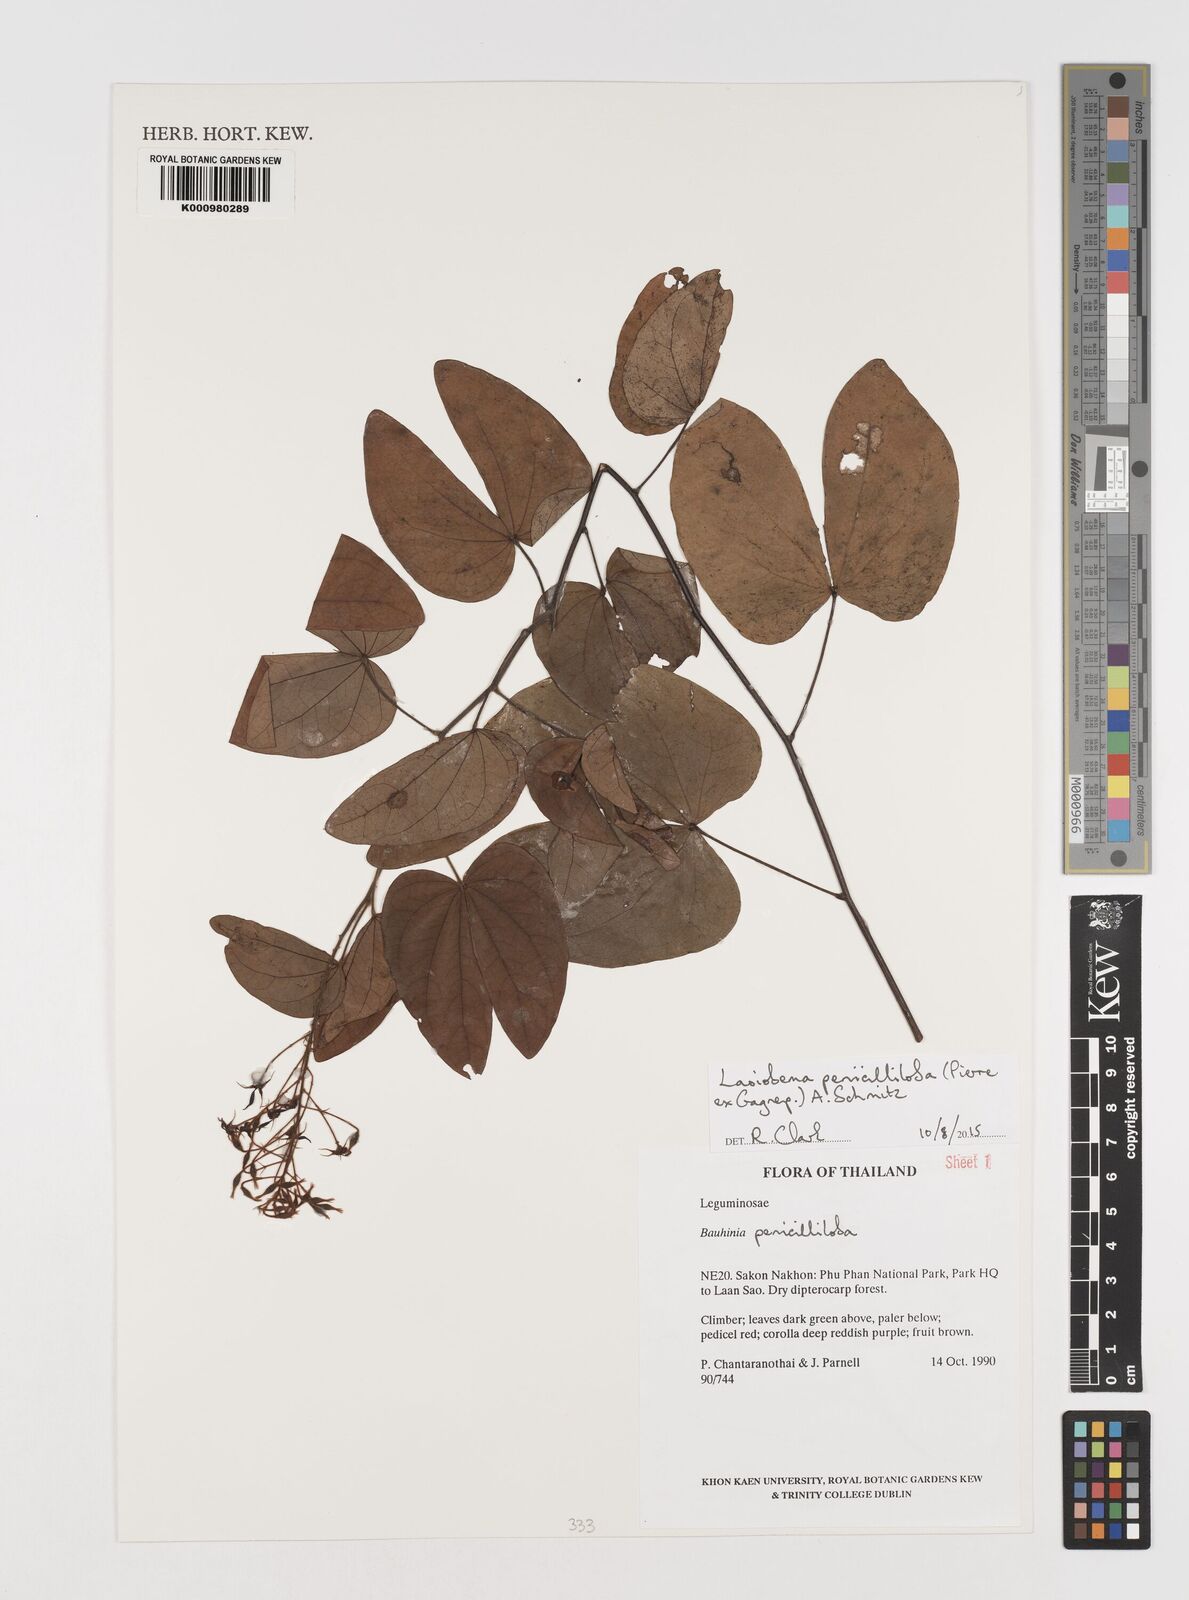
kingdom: Plantae
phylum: Tracheophyta
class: Magnoliopsida
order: Fabales
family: Fabaceae
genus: Phanera
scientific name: Phanera penicilliloba
